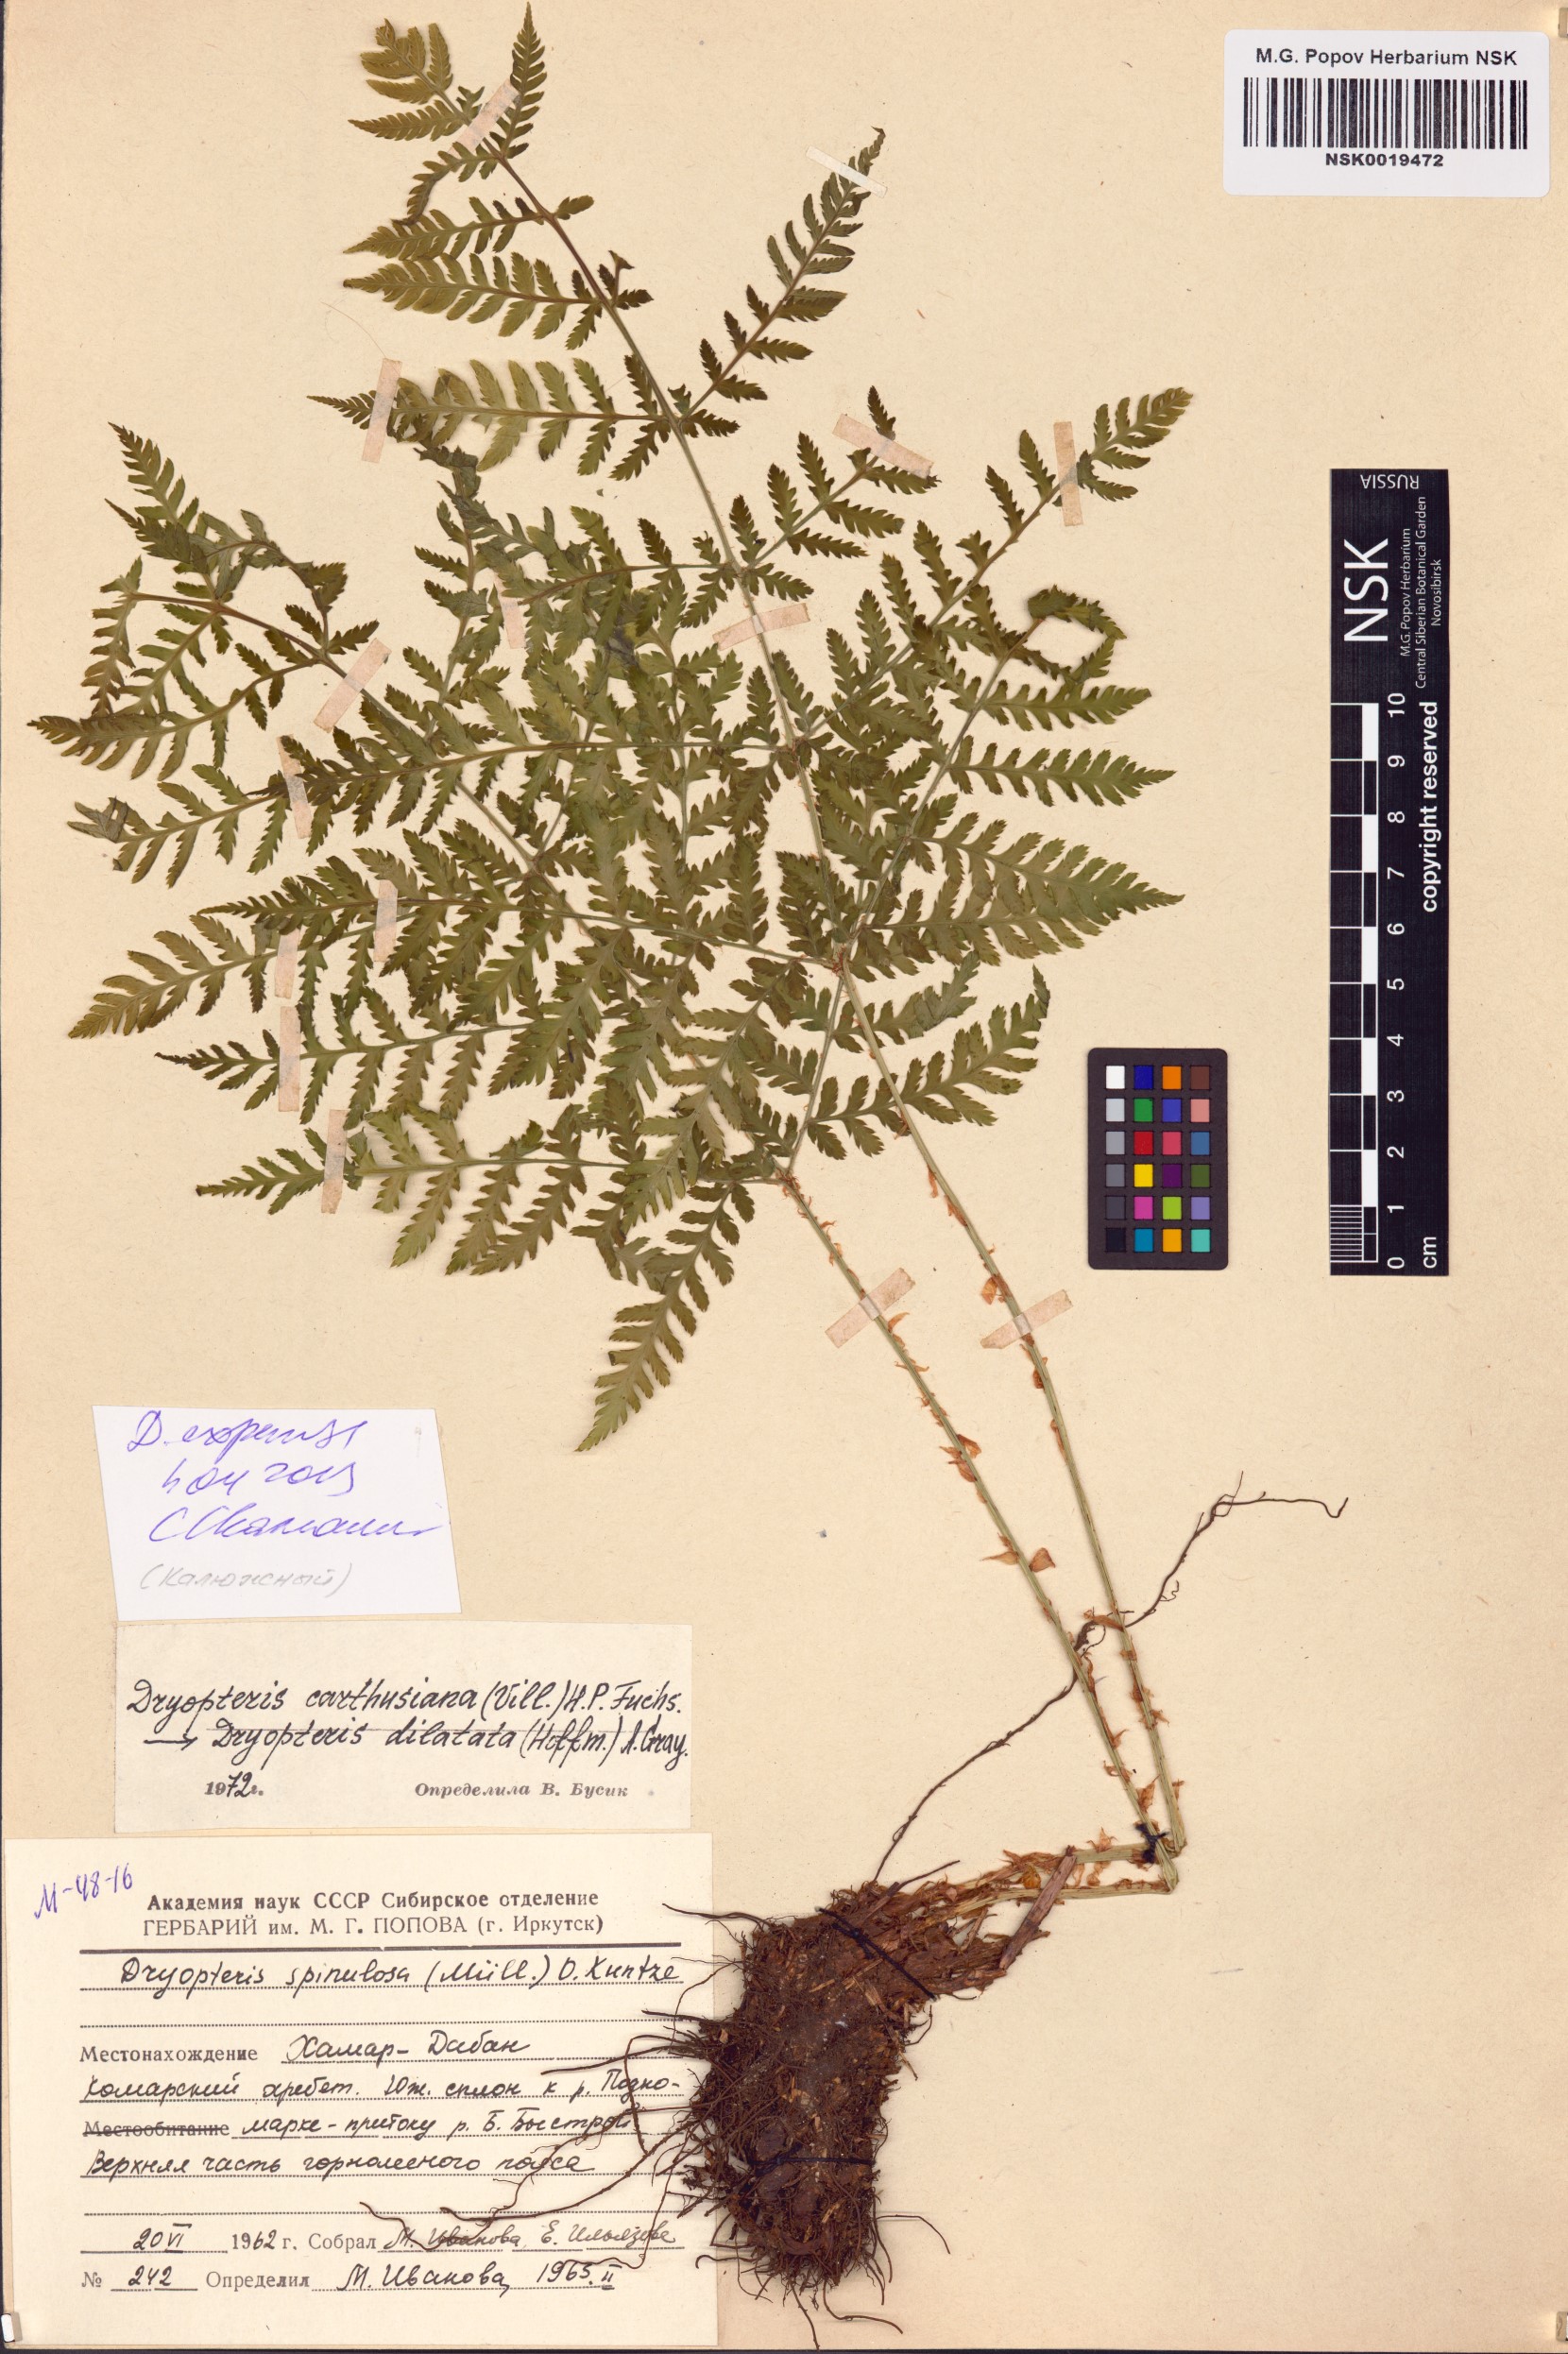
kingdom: Plantae
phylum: Tracheophyta
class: Polypodiopsida
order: Polypodiales
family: Dryopteridaceae
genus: Dryopteris
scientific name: Dryopteris expansa
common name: Northern buckler fern
